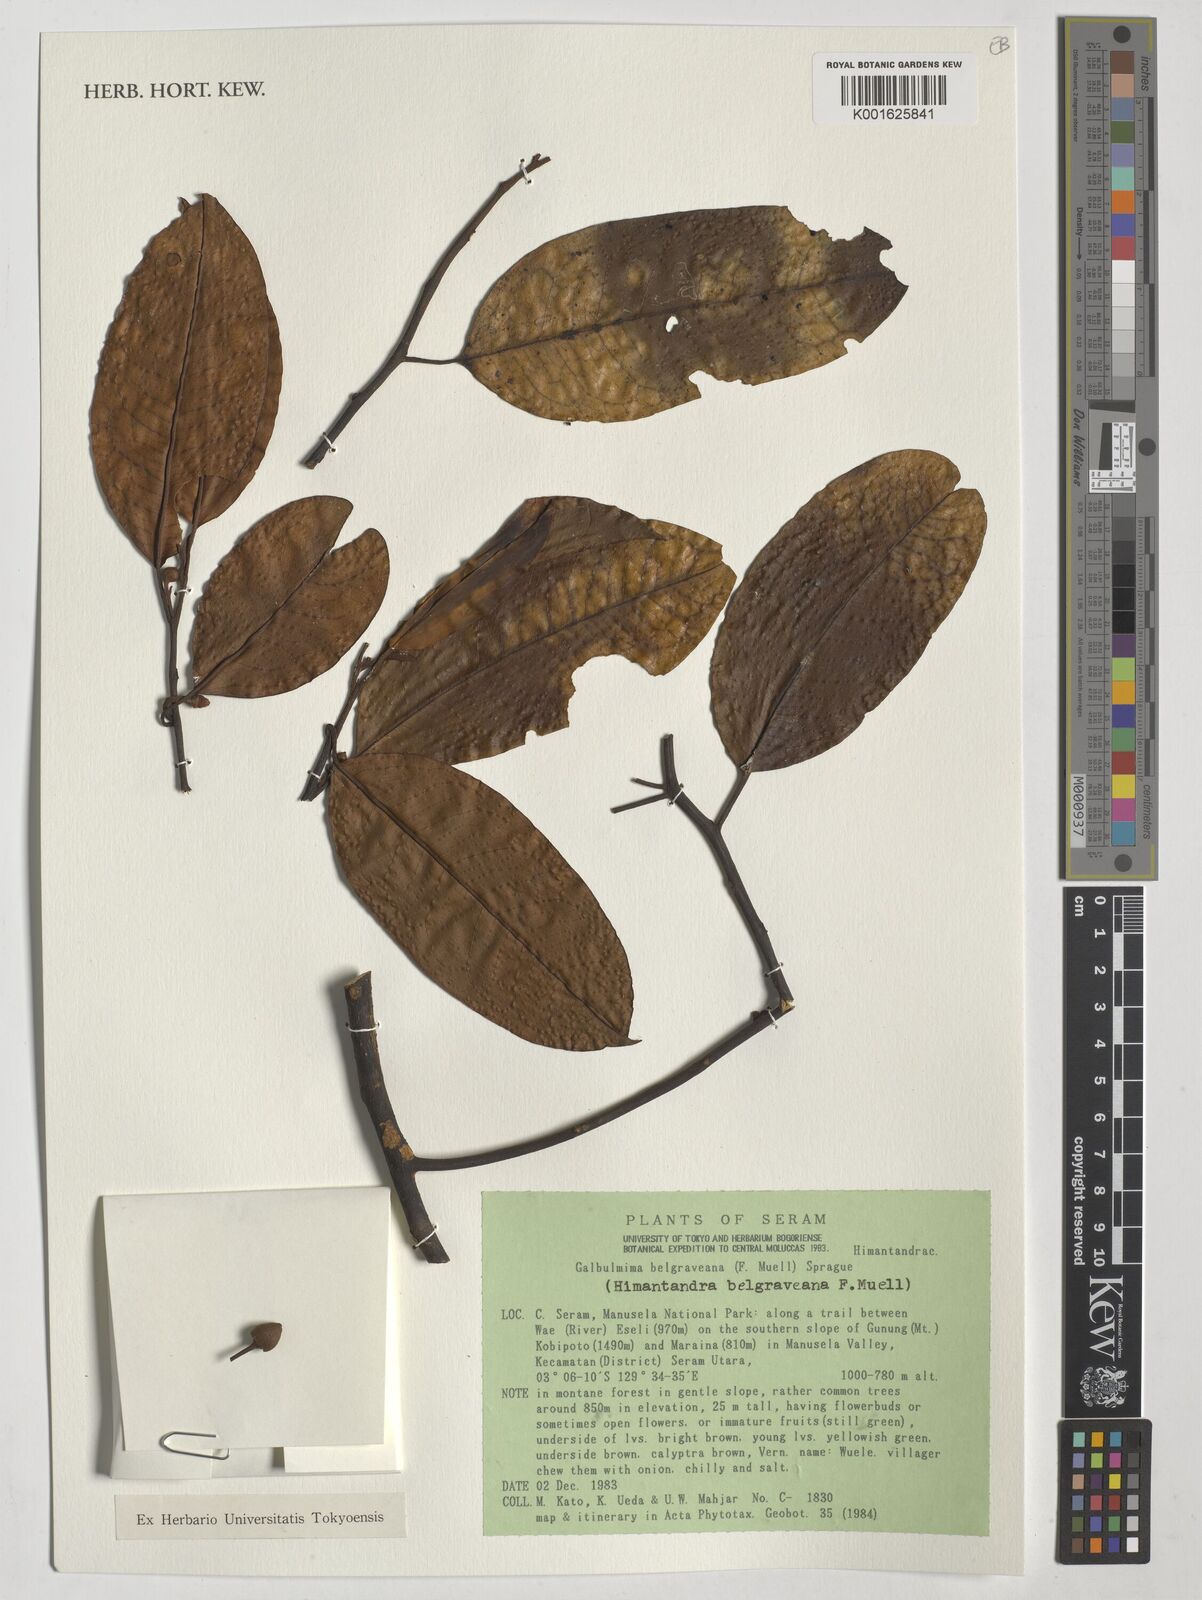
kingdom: Plantae
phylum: Tracheophyta
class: Magnoliopsida
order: Magnoliales
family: Himantandraceae
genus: Galbulimima
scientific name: Galbulimima belgraveana
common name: Northern pigeonberry-ash
